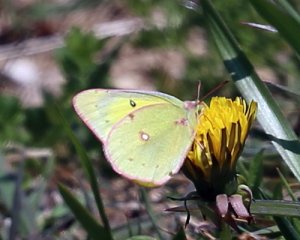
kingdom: Animalia
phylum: Arthropoda
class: Insecta
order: Lepidoptera
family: Pieridae
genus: Colias
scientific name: Colias eurytheme
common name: Orange Sulphur
